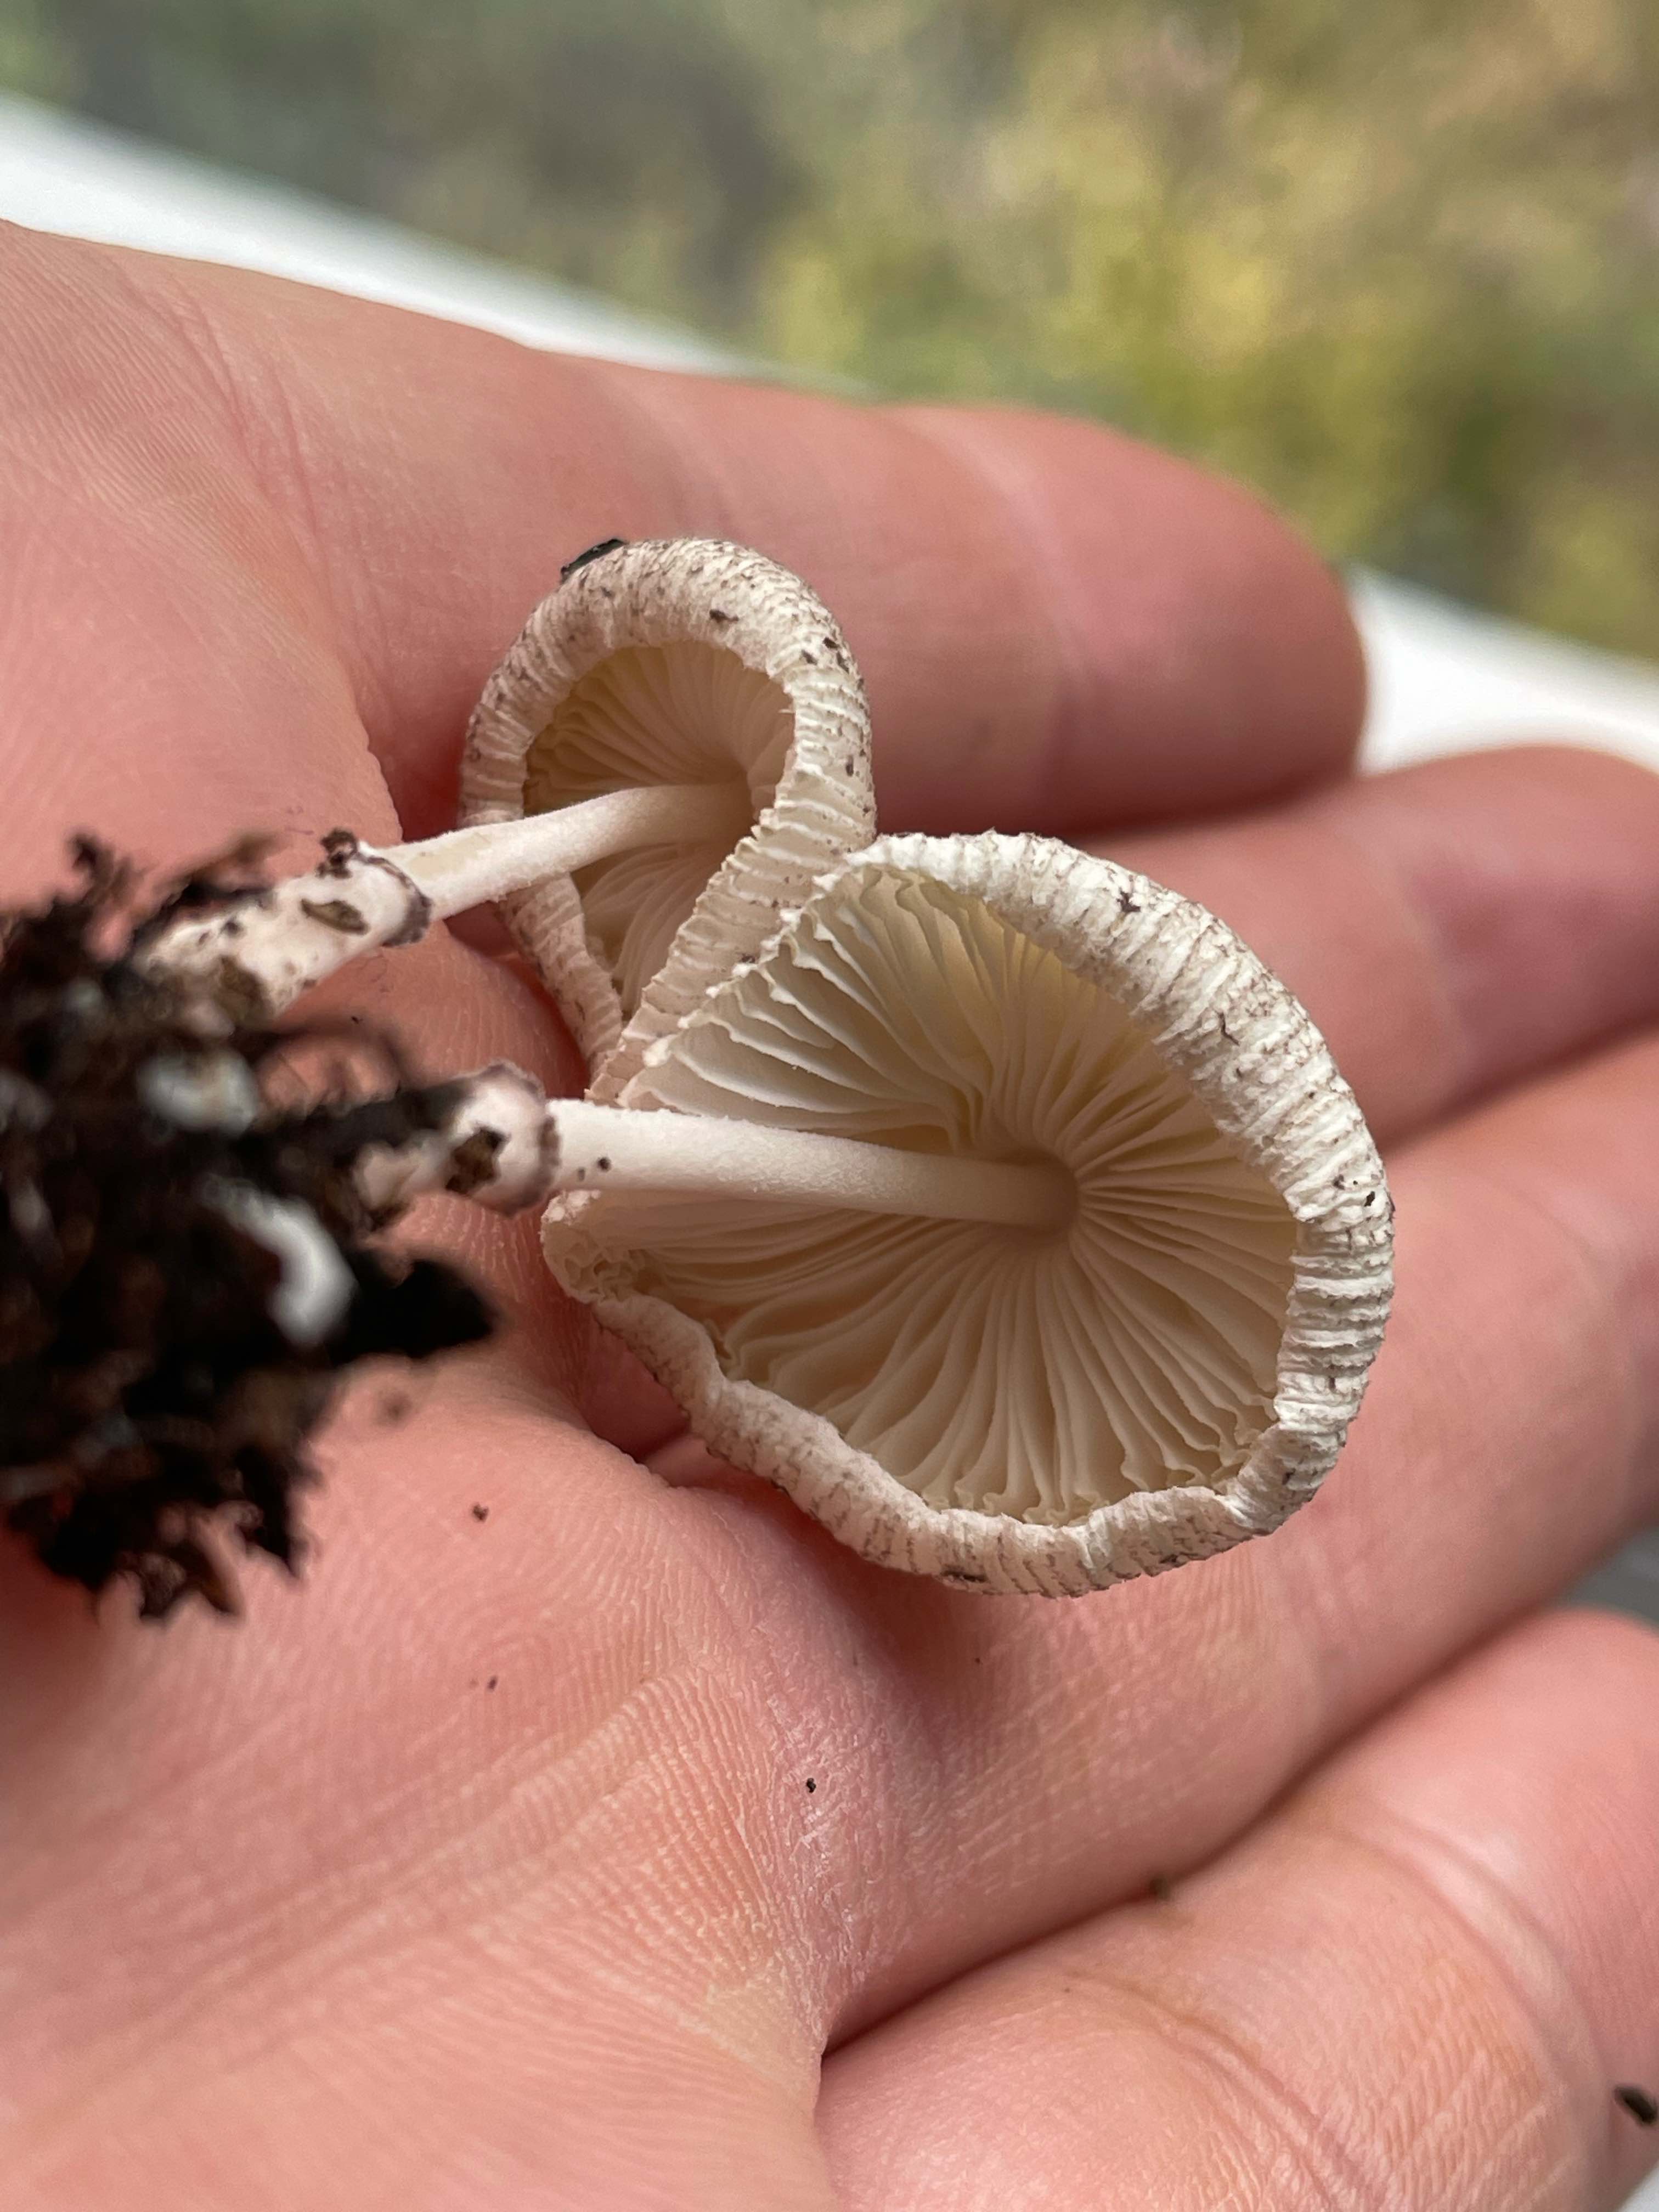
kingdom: Fungi
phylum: Basidiomycota
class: Agaricomycetes
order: Agaricales
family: Agaricaceae
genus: Leucocoprinus
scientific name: Leucocoprinus ianthinus
